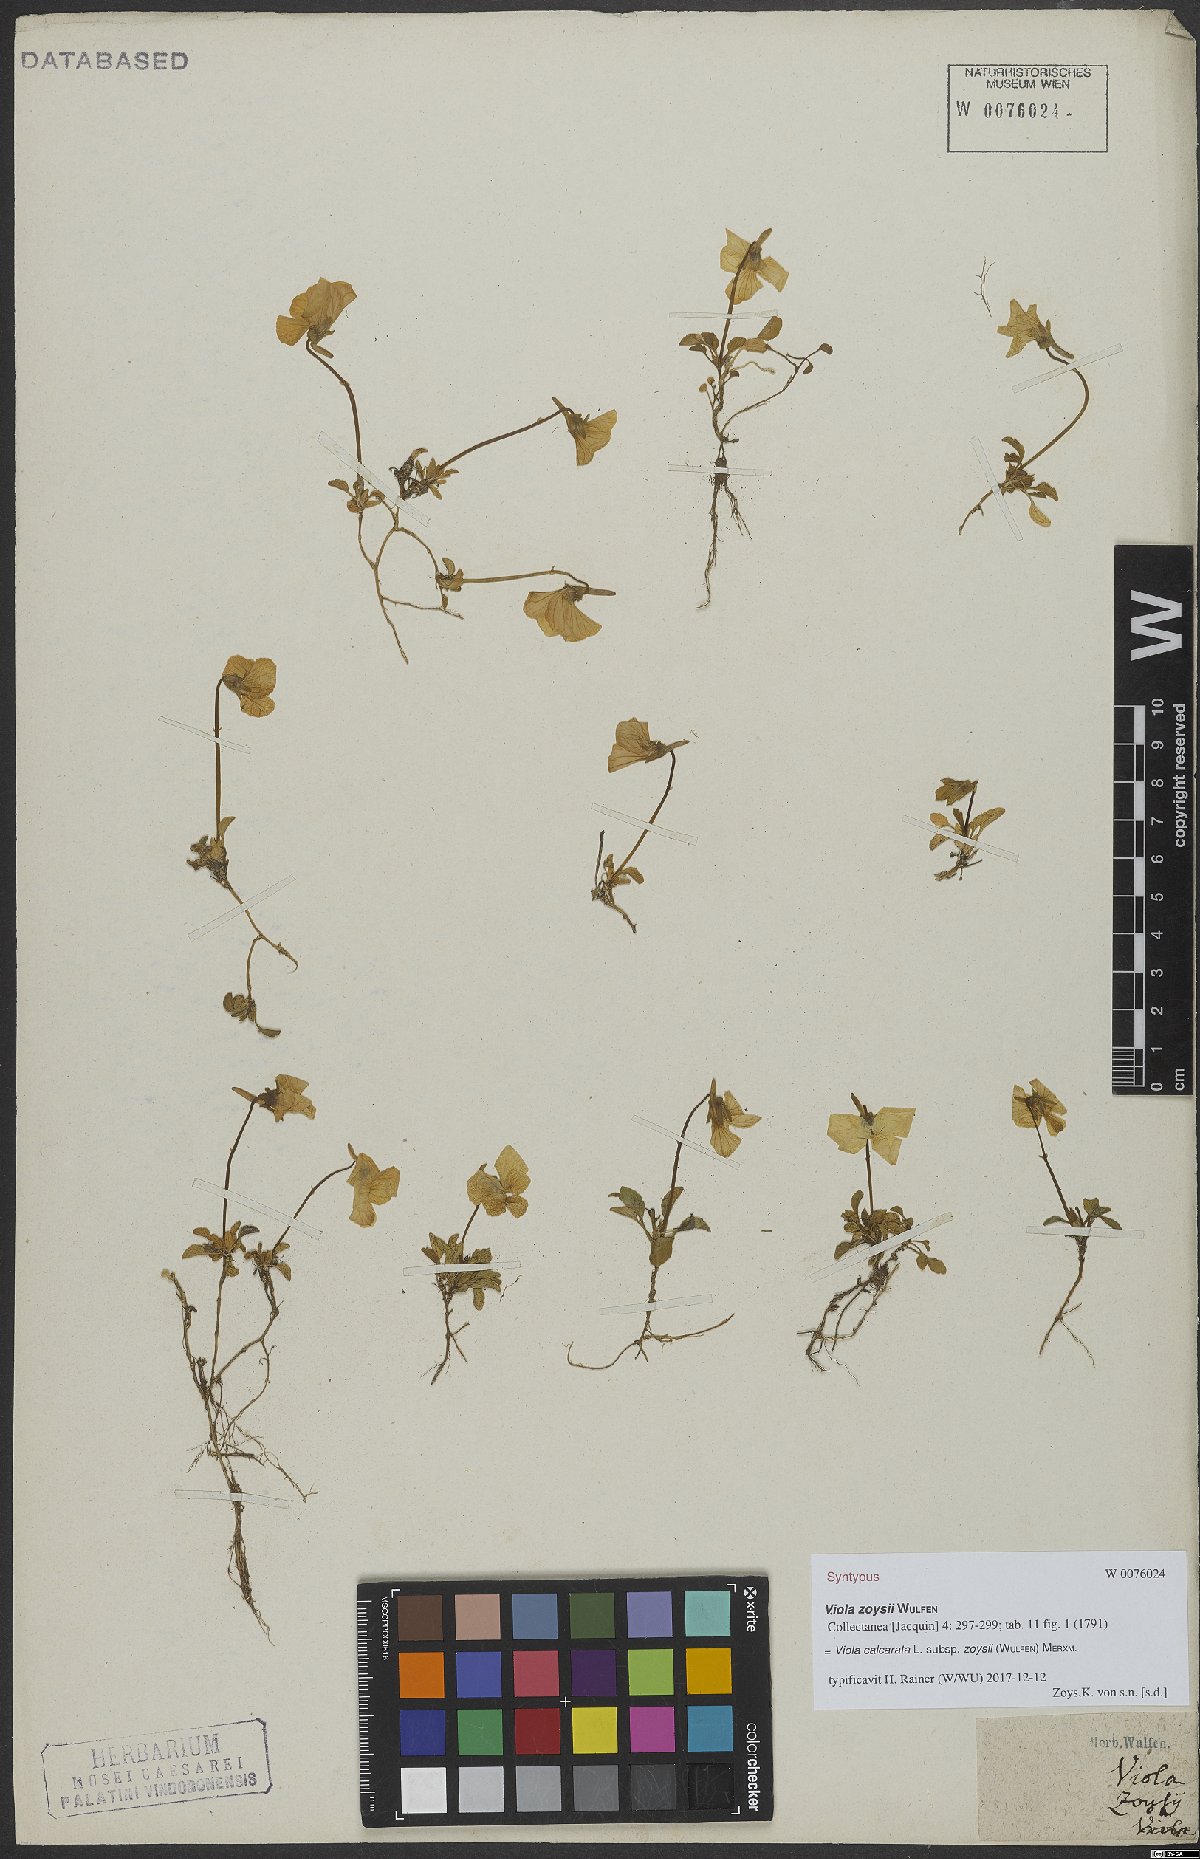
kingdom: Plantae
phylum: Tracheophyta
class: Magnoliopsida
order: Malpighiales
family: Violaceae
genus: Viola
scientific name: Viola calcarata
